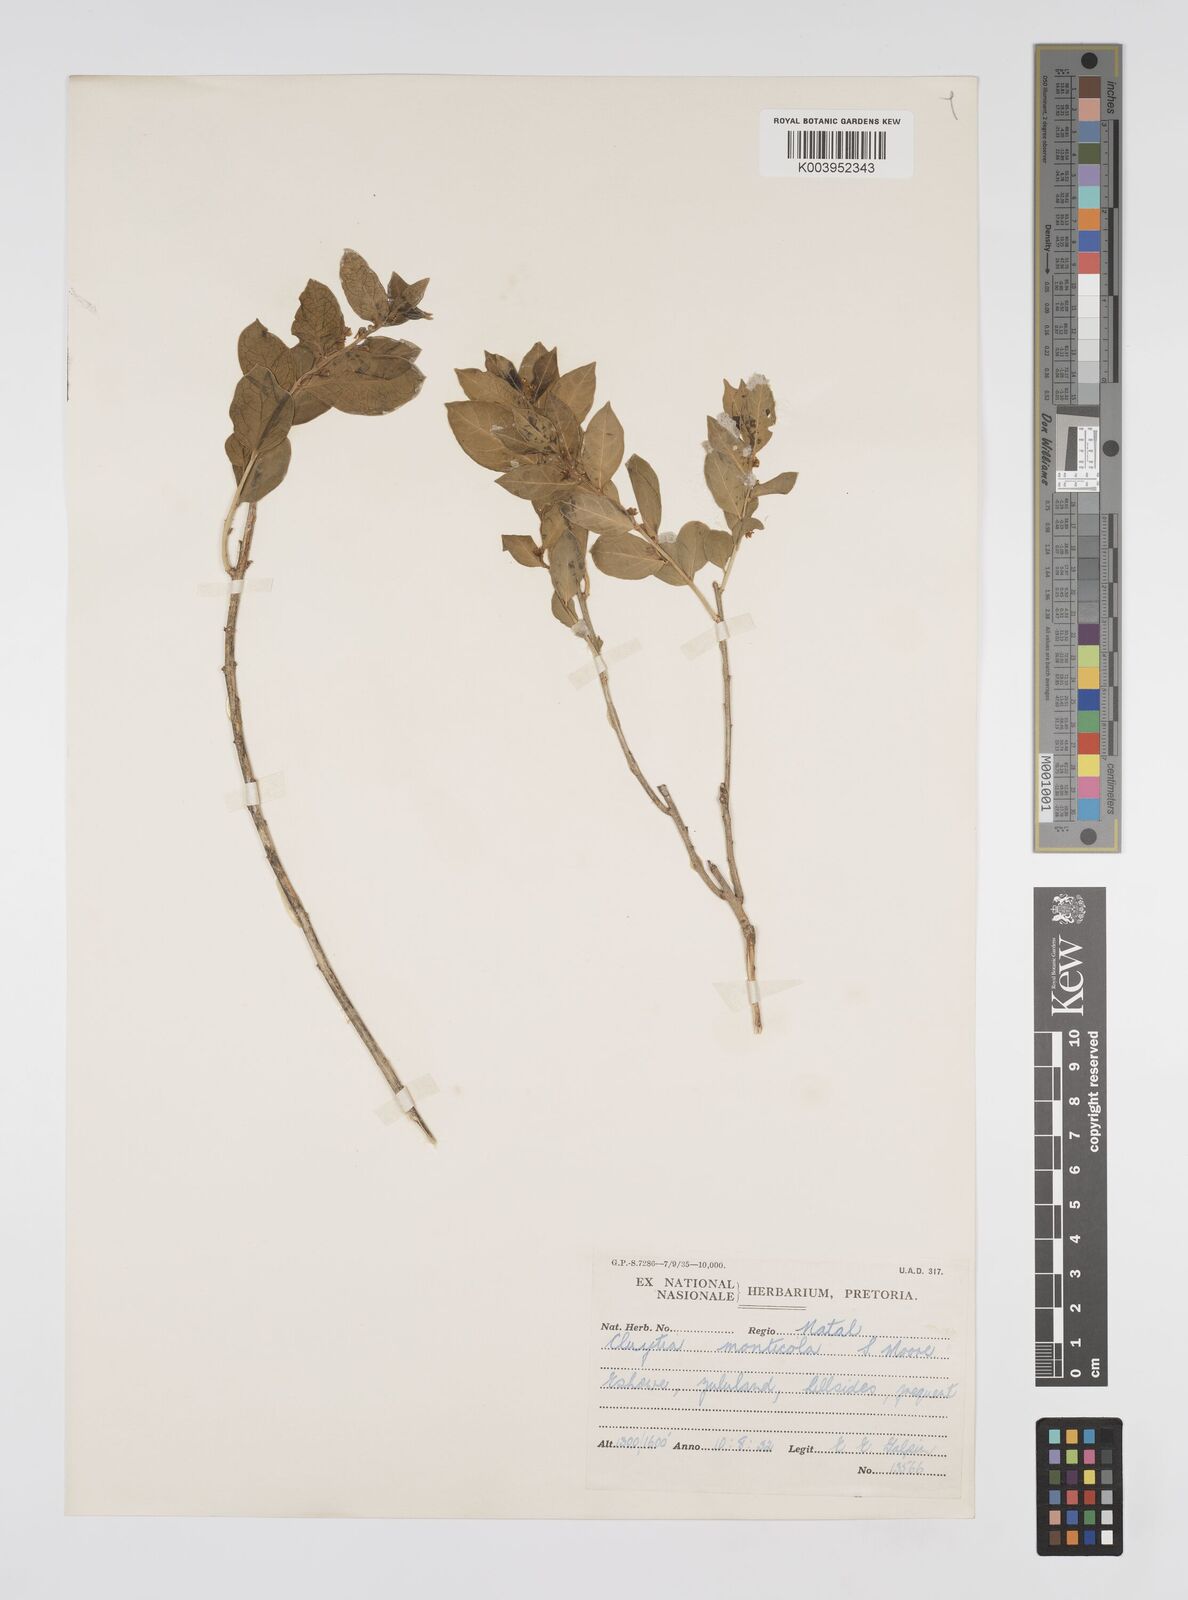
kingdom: Plantae
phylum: Tracheophyta
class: Magnoliopsida
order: Malpighiales
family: Peraceae
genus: Clutia
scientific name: Clutia monticola
